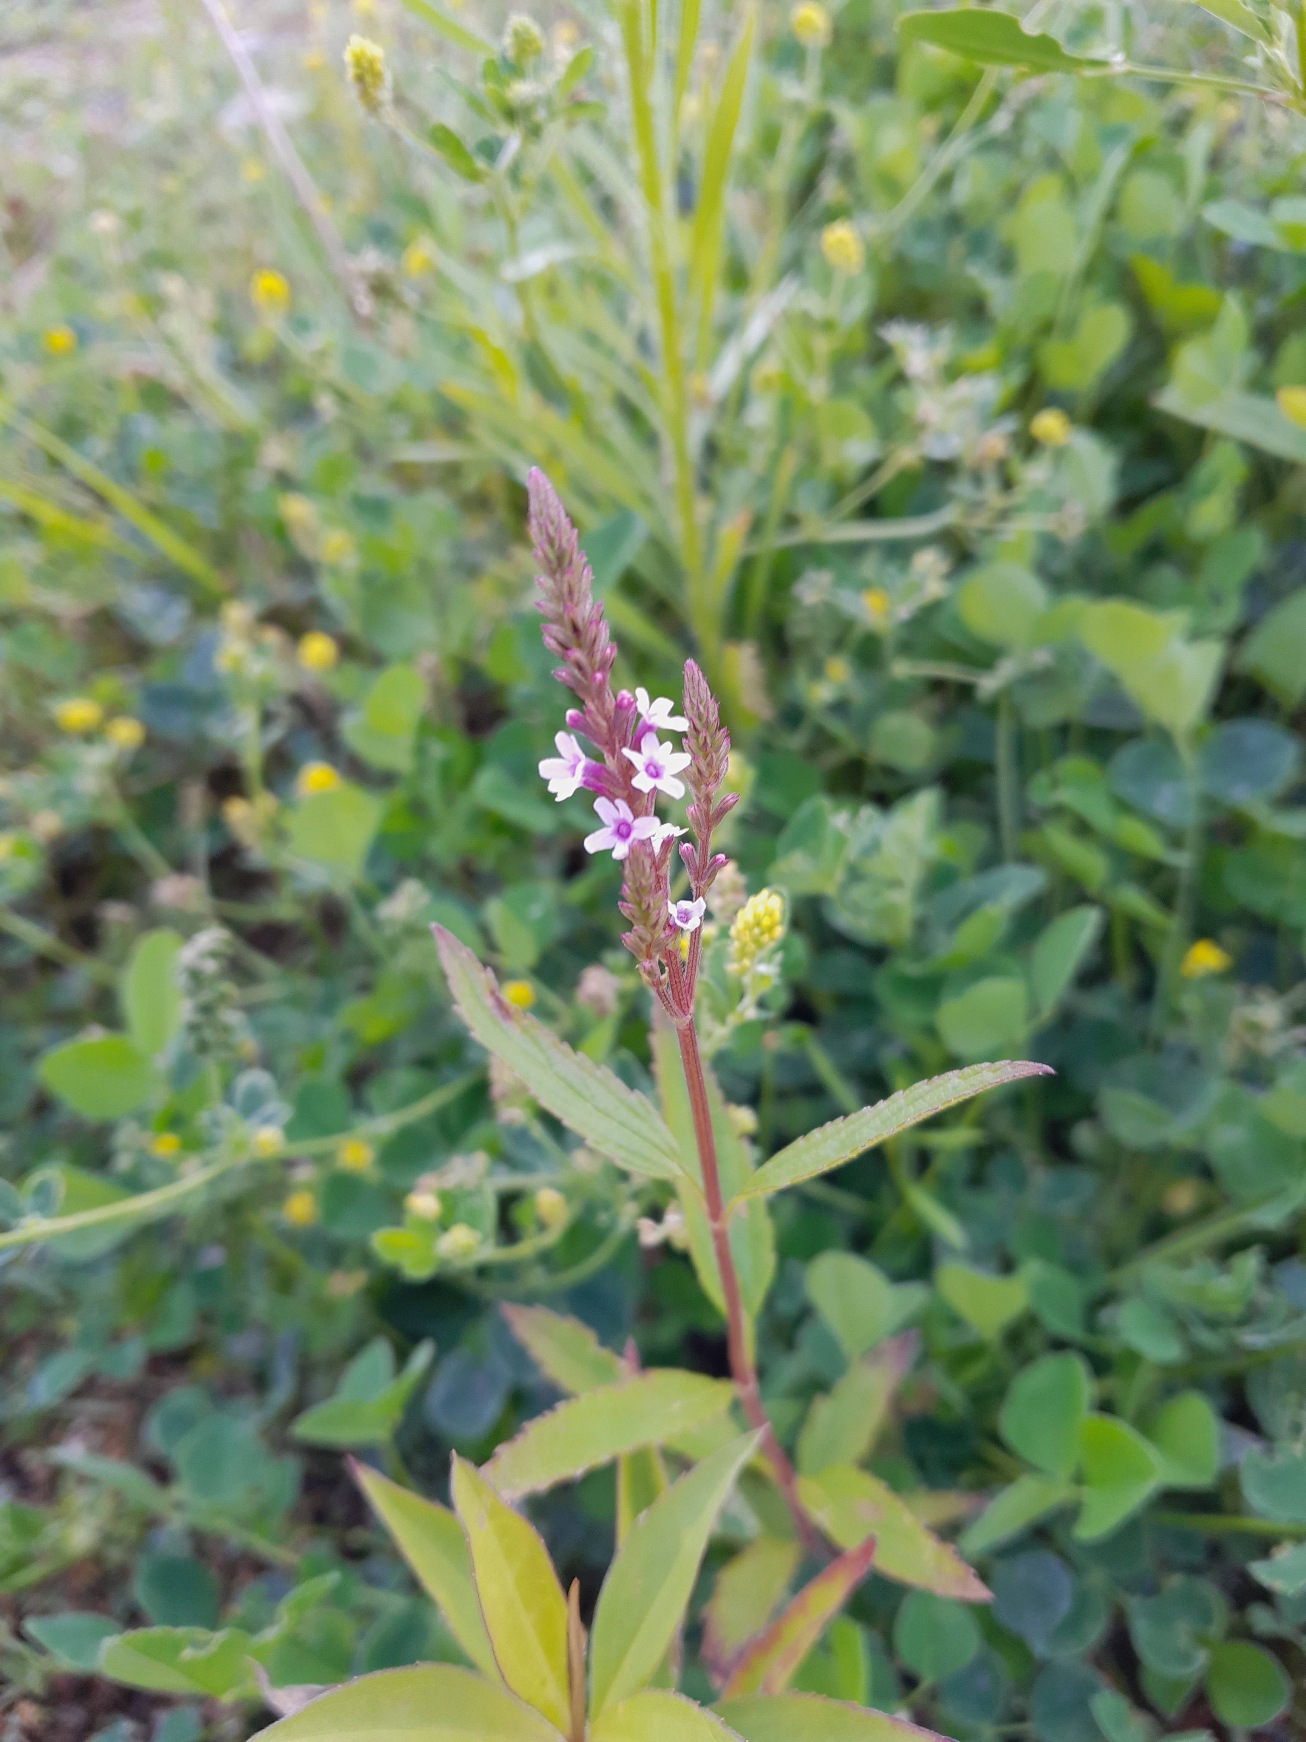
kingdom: Plantae
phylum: Tracheophyta
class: Magnoliopsida
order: Lamiales
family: Verbenaceae
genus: Verbena
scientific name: Verbena hastata
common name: Blå jernurt
